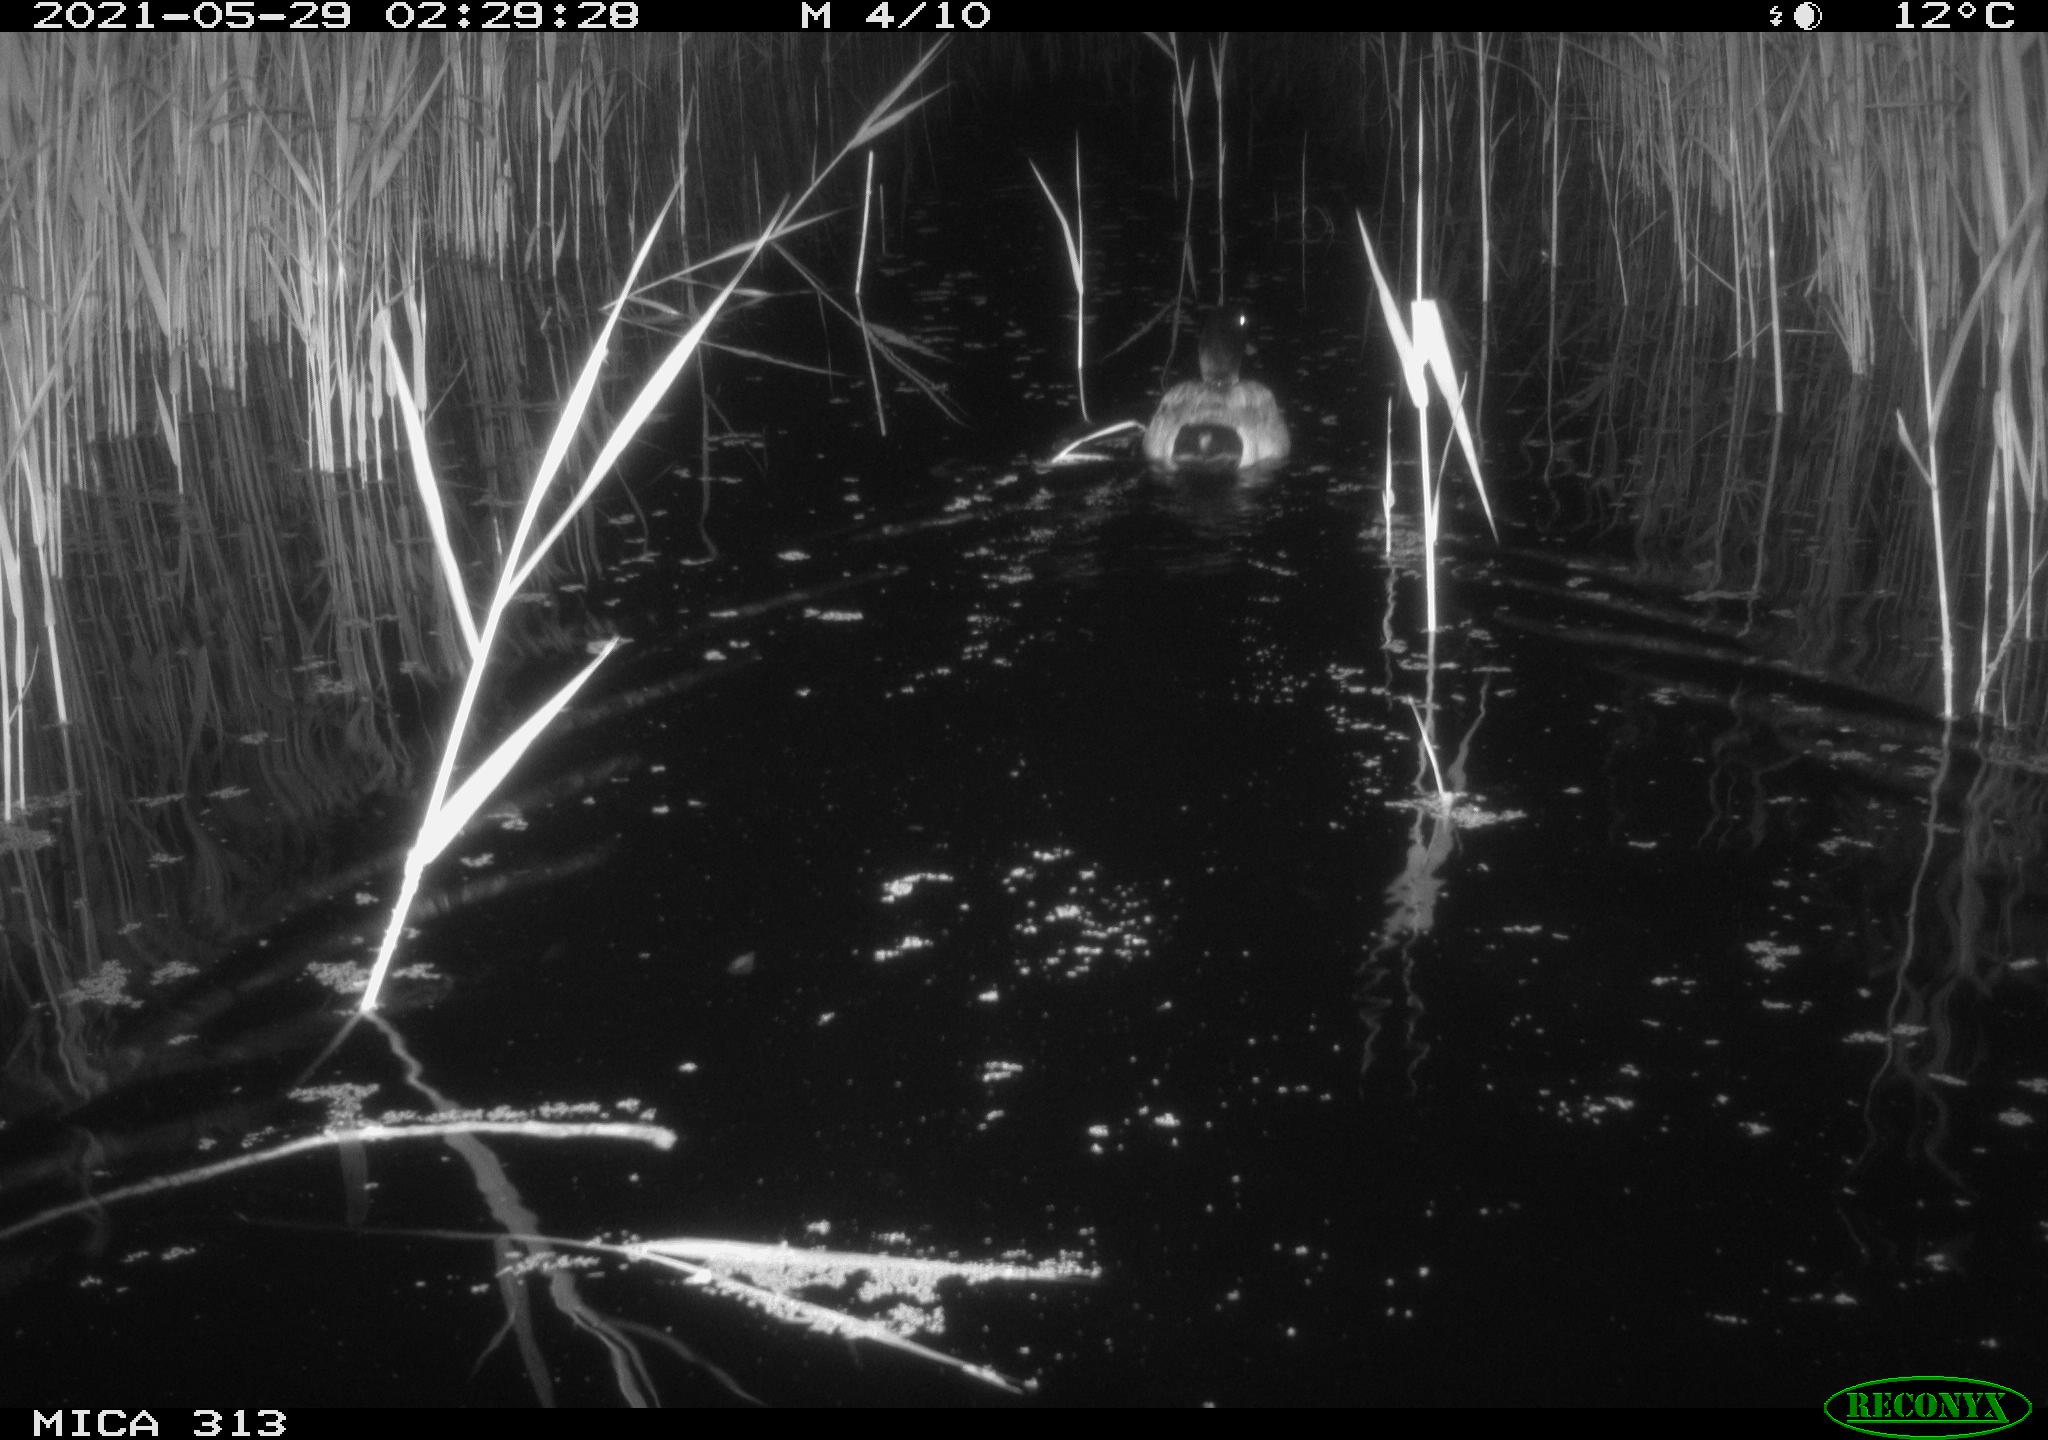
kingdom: Animalia
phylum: Chordata
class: Aves
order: Anseriformes
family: Anatidae
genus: Anas
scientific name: Anas platyrhynchos
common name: Mallard
